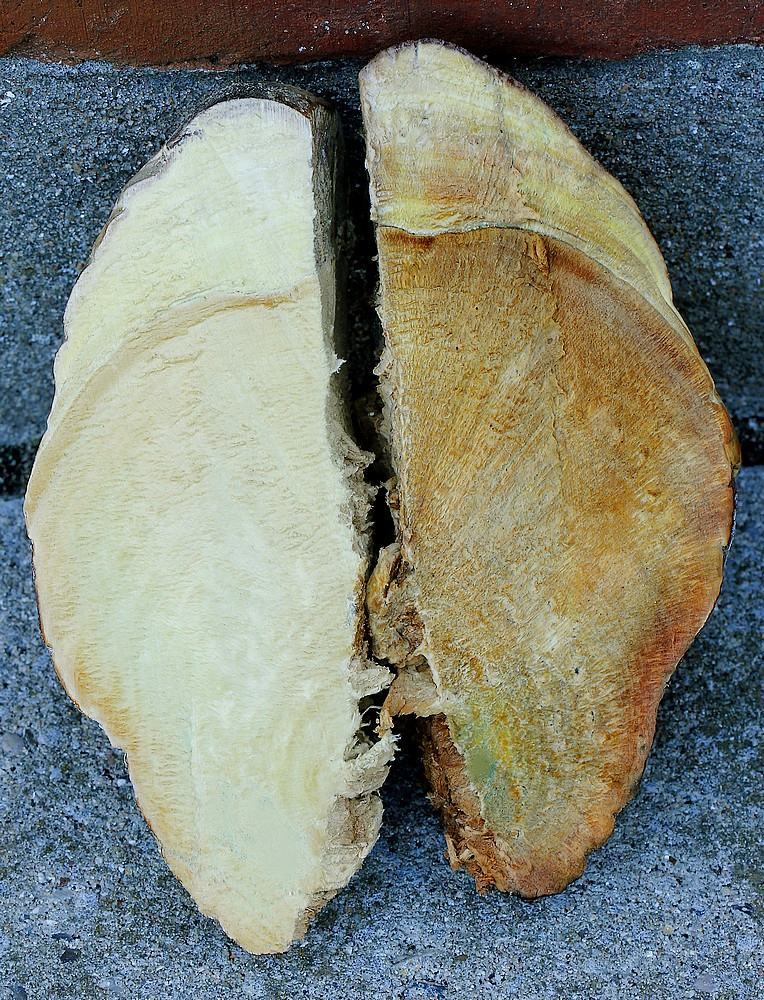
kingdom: Fungi
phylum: Basidiomycota
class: Agaricomycetes
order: Polyporales
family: Fomitopsidaceae
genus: Fomitopsis
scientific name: Fomitopsis pinicola
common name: randbæltet hovporesvamp
